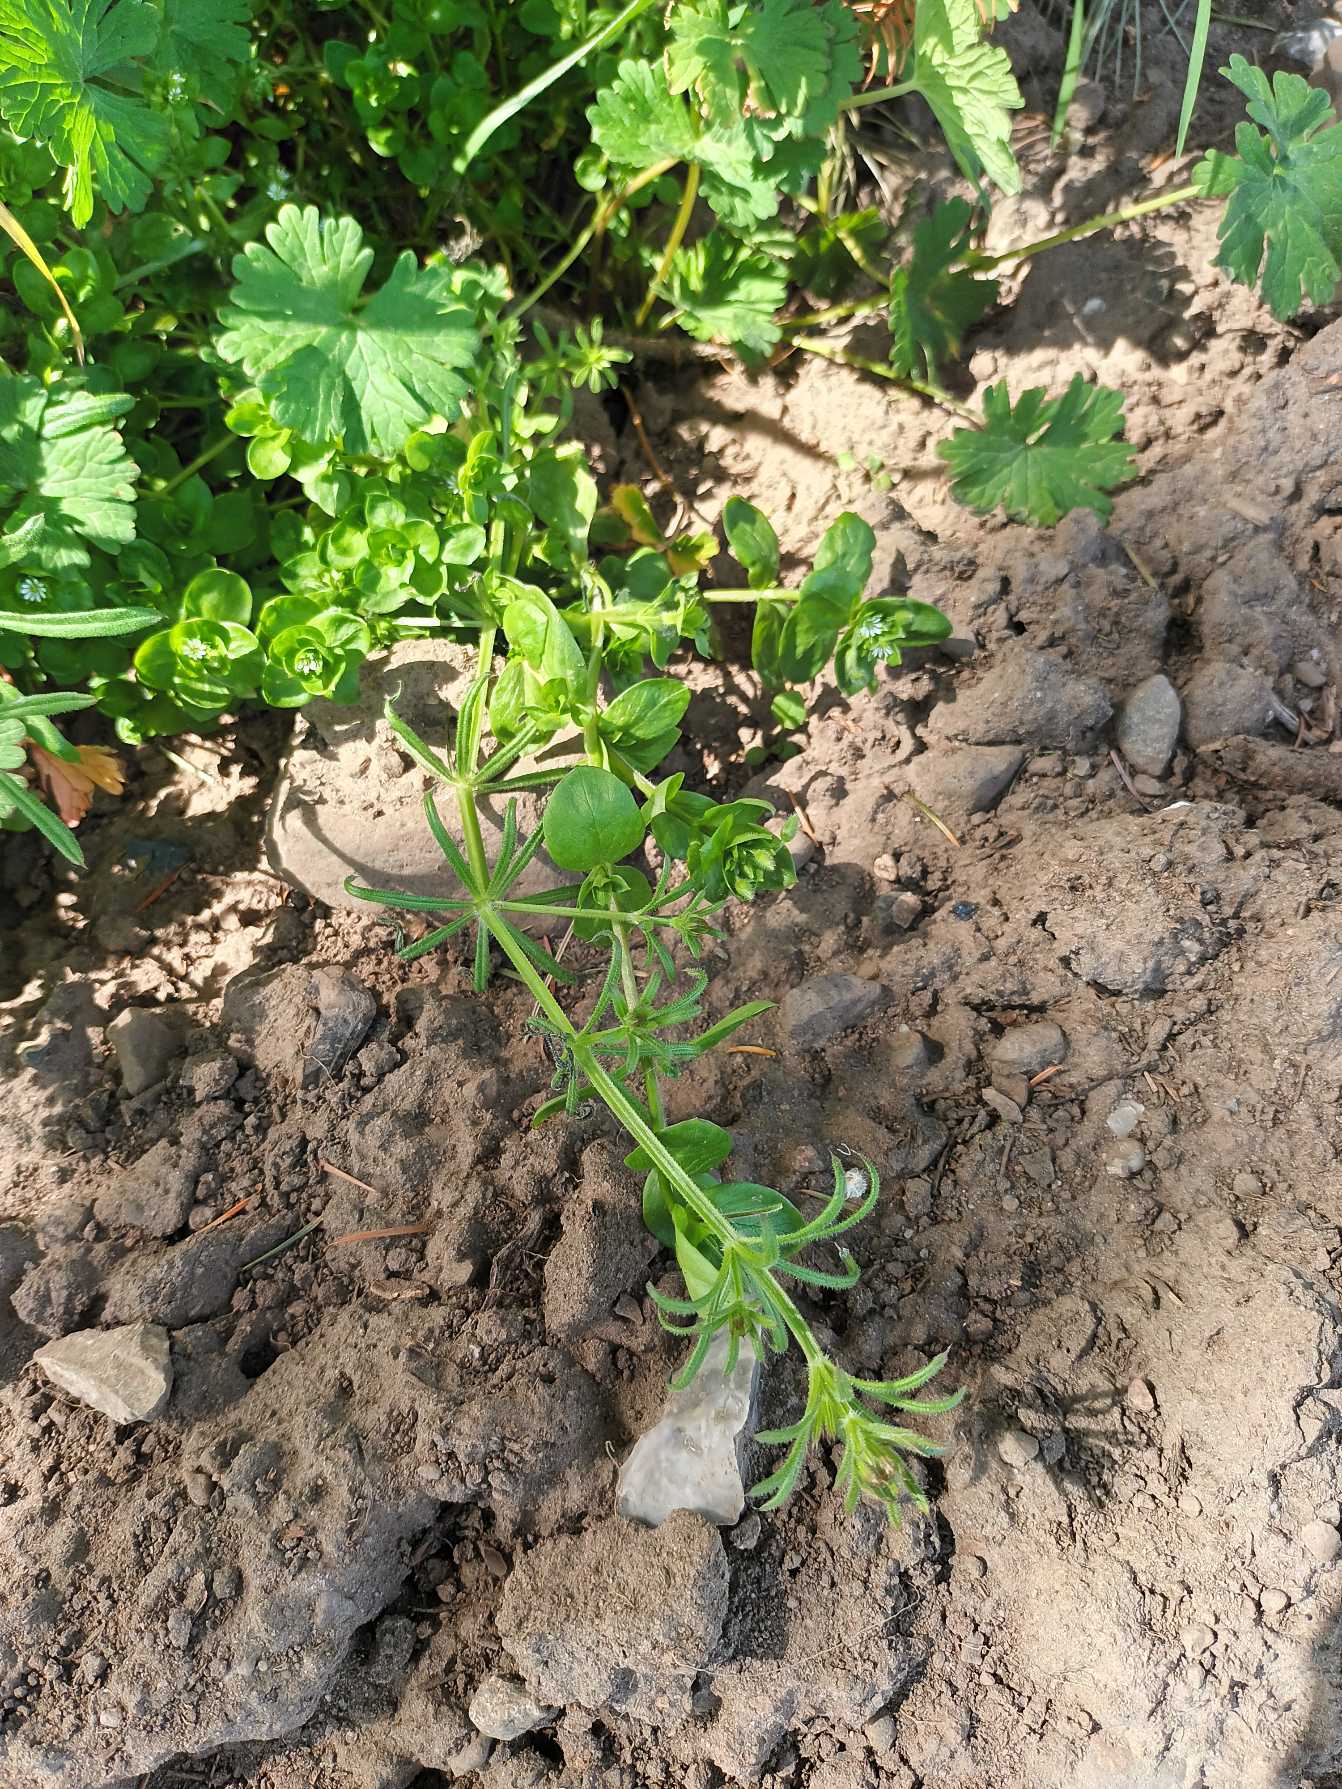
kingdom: Plantae
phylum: Tracheophyta
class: Magnoliopsida
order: Gentianales
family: Rubiaceae
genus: Galium
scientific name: Galium aparine
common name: Burre-snerre
